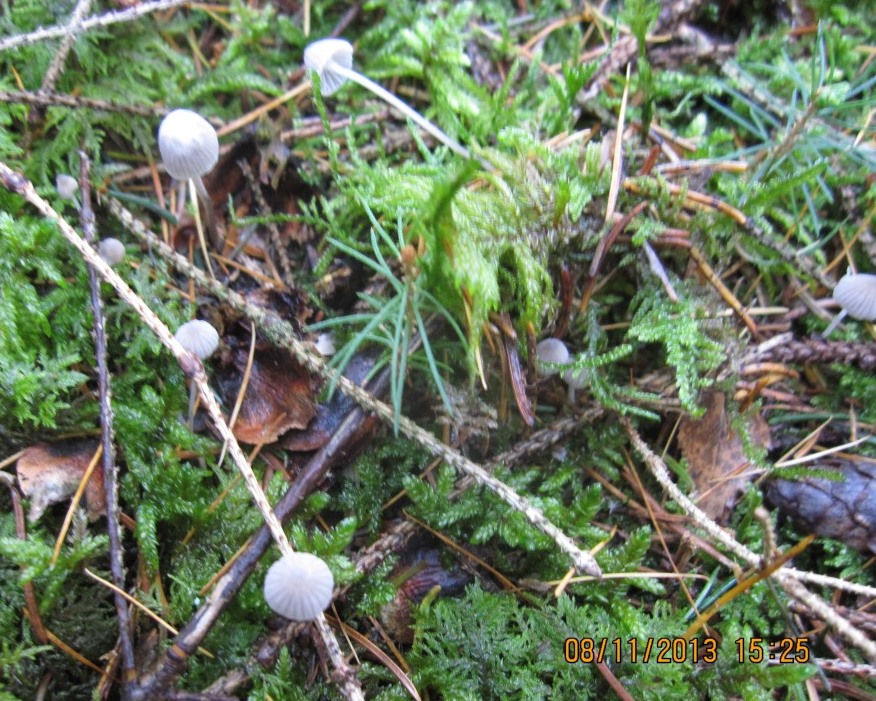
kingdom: Fungi
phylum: Basidiomycota
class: Agaricomycetes
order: Agaricales
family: Mycenaceae
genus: Mycena
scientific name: Mycena cinerella
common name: mel-huesvamp
